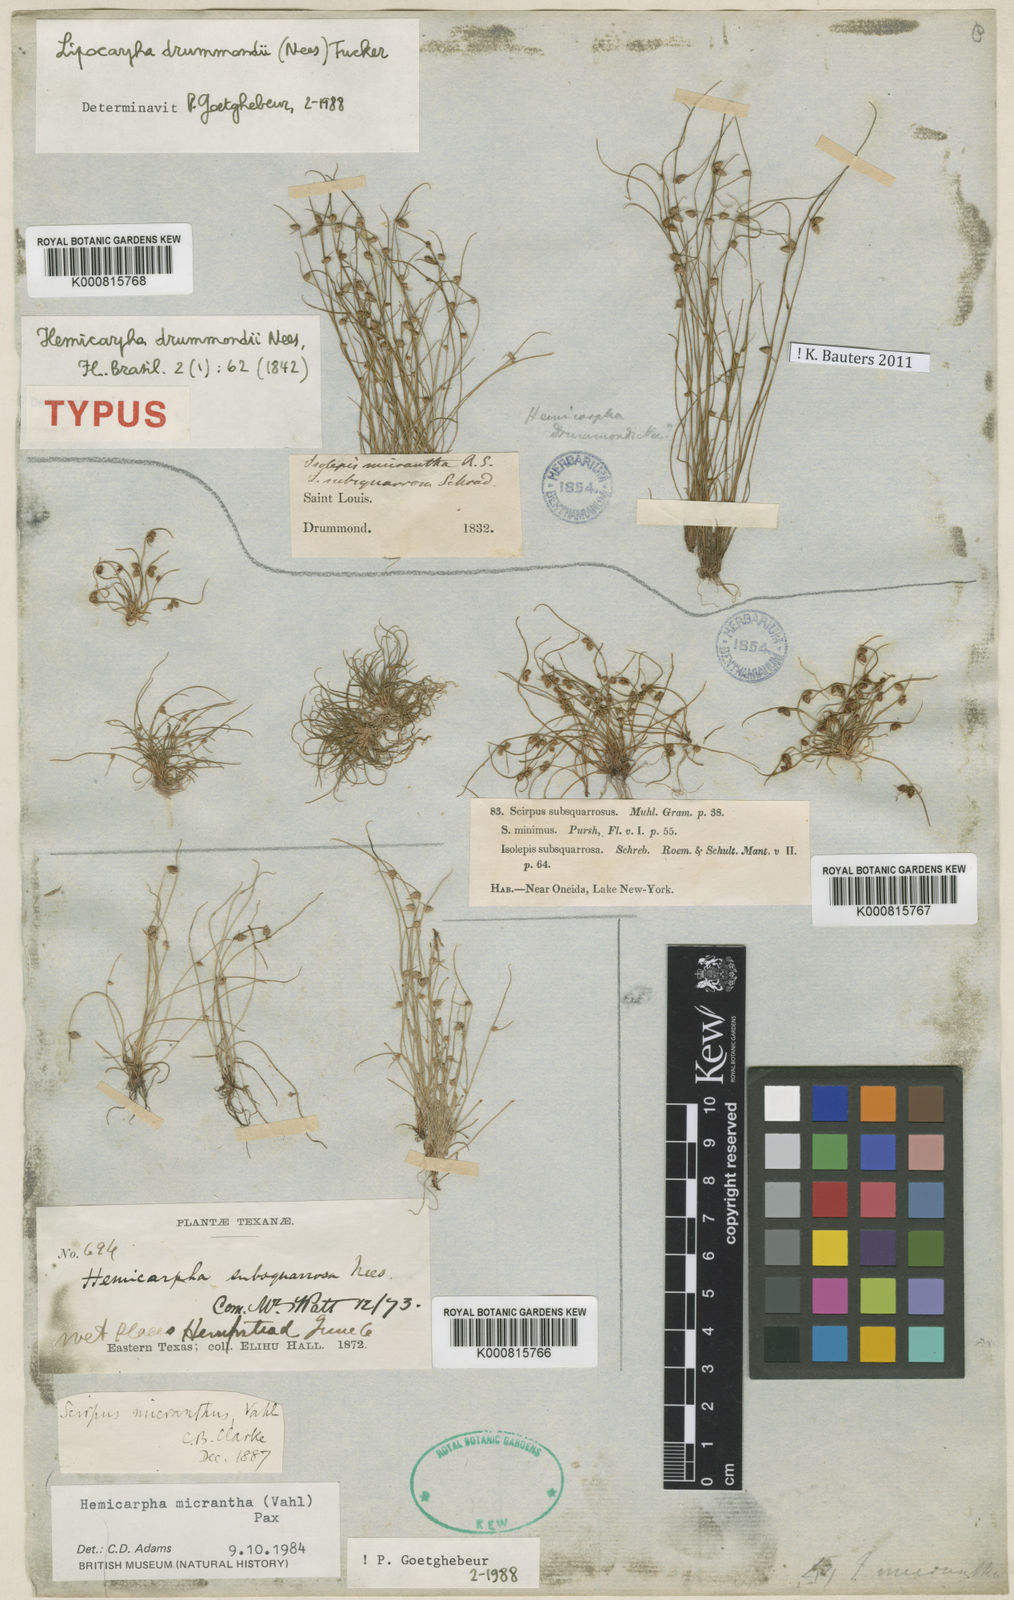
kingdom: Plantae
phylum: Tracheophyta
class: Liliopsida
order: Poales
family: Cyperaceae
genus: Cyperus
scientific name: Cyperus hemidrummondii
